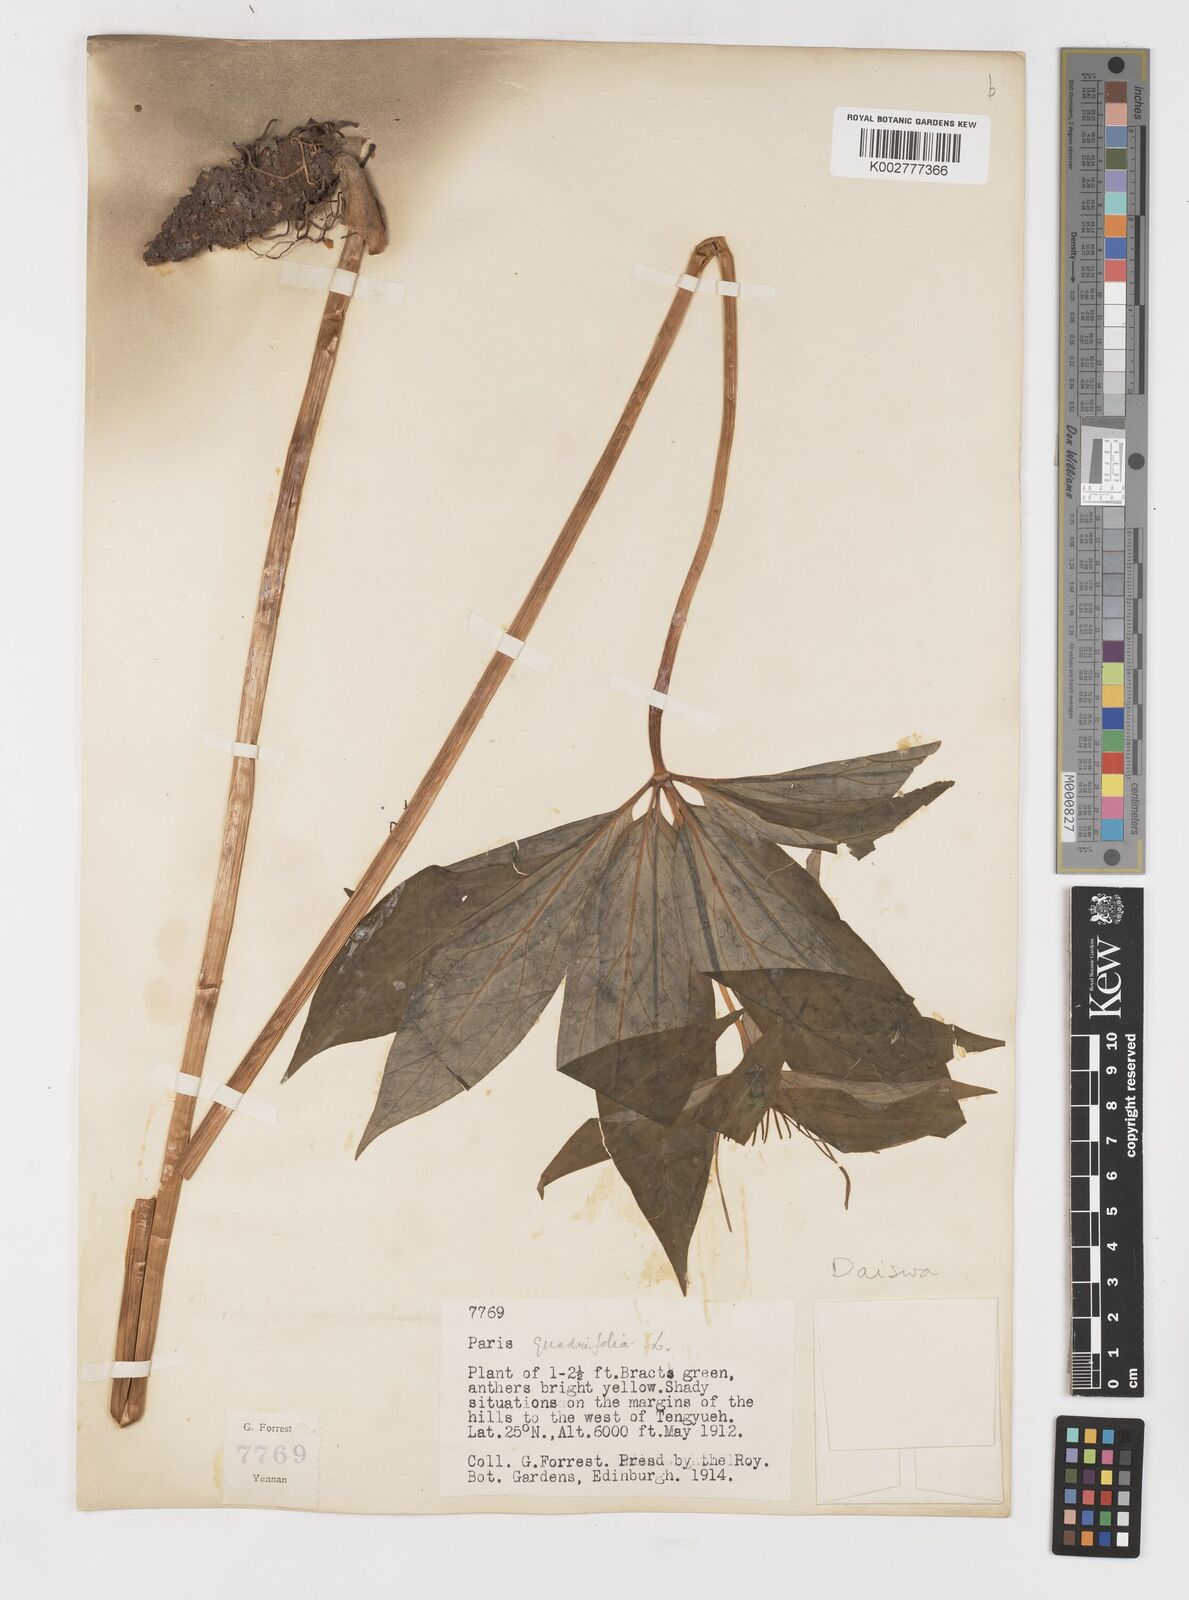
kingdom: Plantae
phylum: Tracheophyta
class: Liliopsida
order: Liliales
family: Melanthiaceae
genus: Paris
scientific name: Paris
